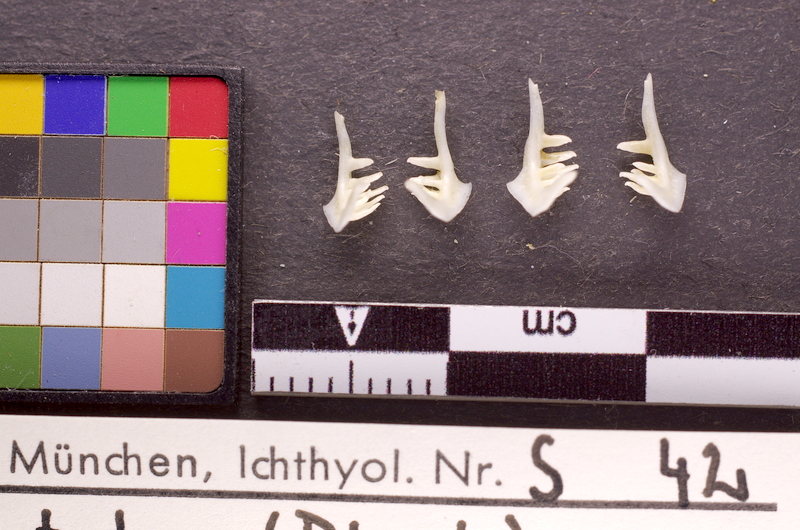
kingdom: Animalia
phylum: Chordata
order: Cypriniformes
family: Cyprinidae
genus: Alburnoides
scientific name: Alburnoides bipunctatus
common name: Spirlin
